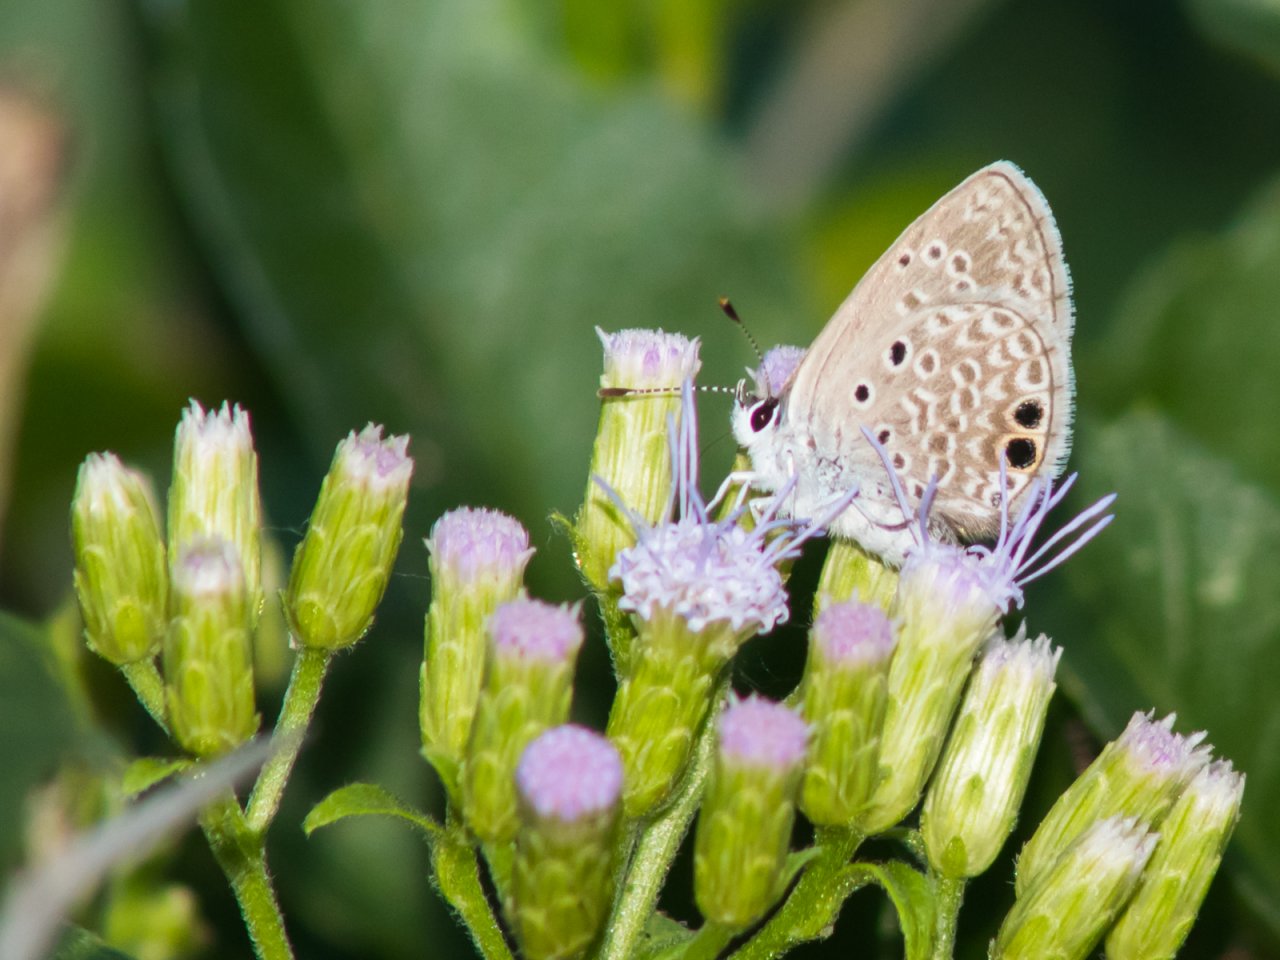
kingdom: Animalia
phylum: Arthropoda
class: Insecta
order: Lepidoptera
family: Lycaenidae
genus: Hemiargus
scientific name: Hemiargus ceraunus
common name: Ceraunus Blue
